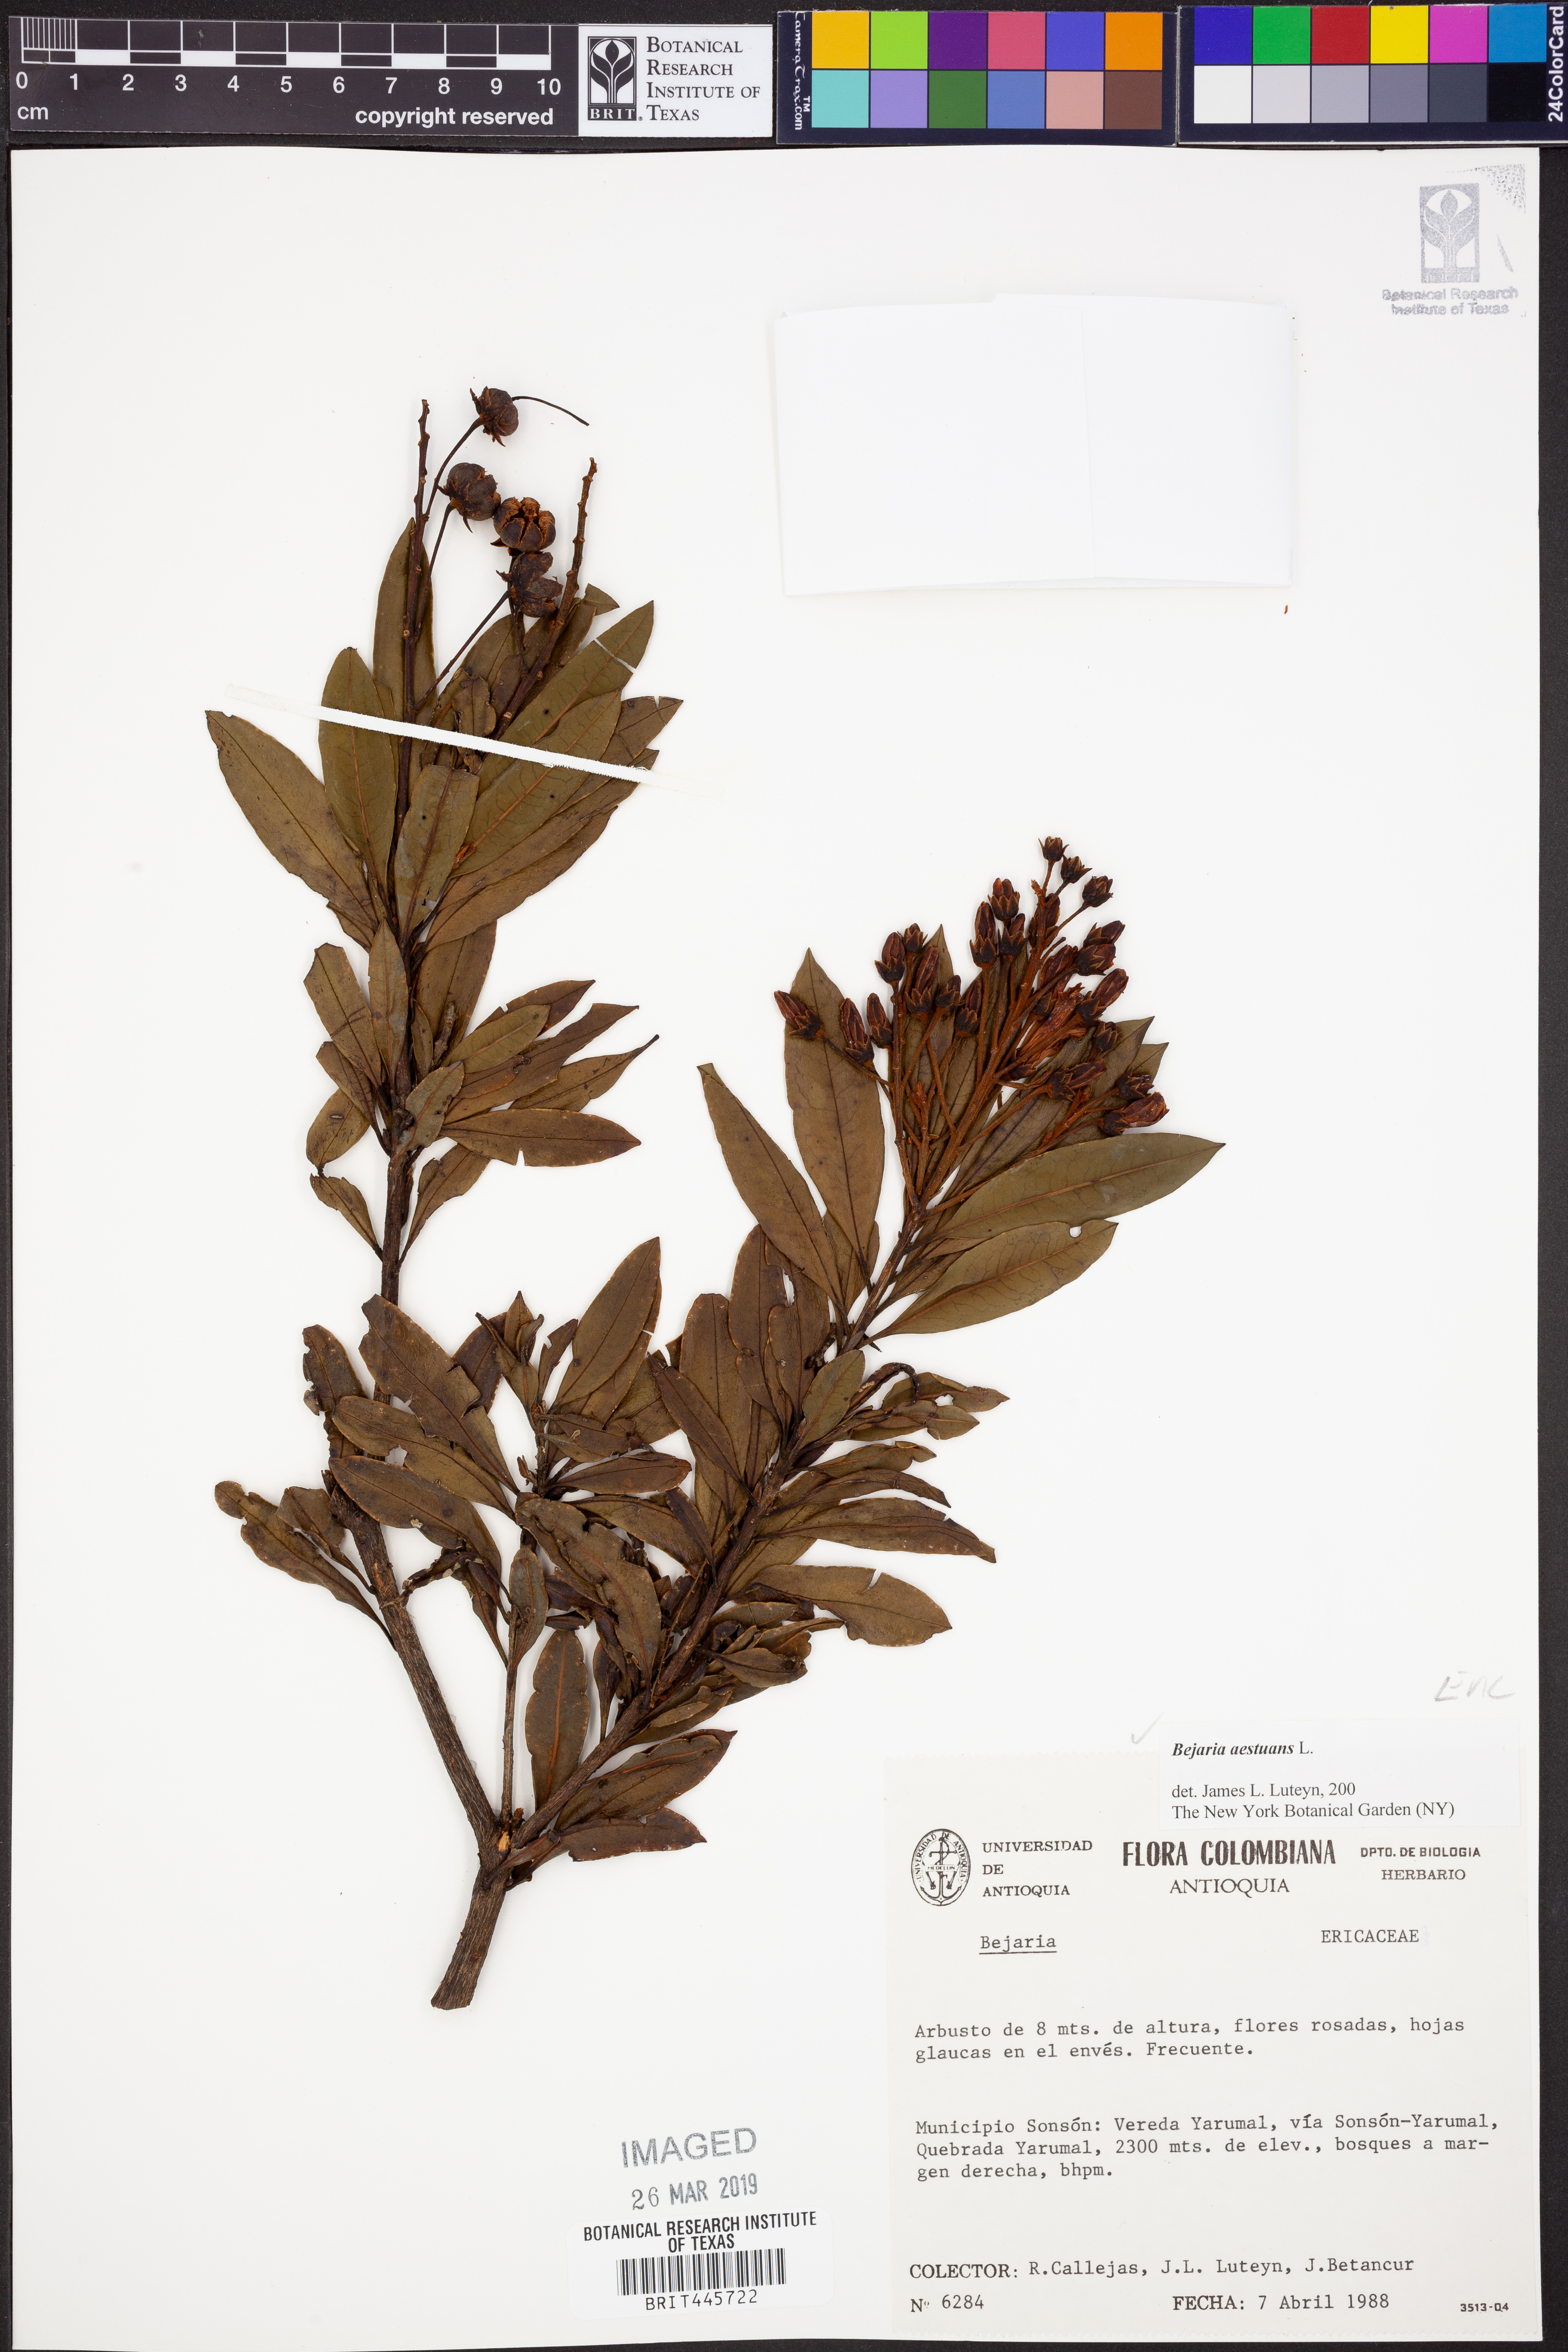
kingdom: Plantae
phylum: Tracheophyta
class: Magnoliopsida
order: Ericales
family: Ericaceae
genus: Bejaria
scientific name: Bejaria aestuans
